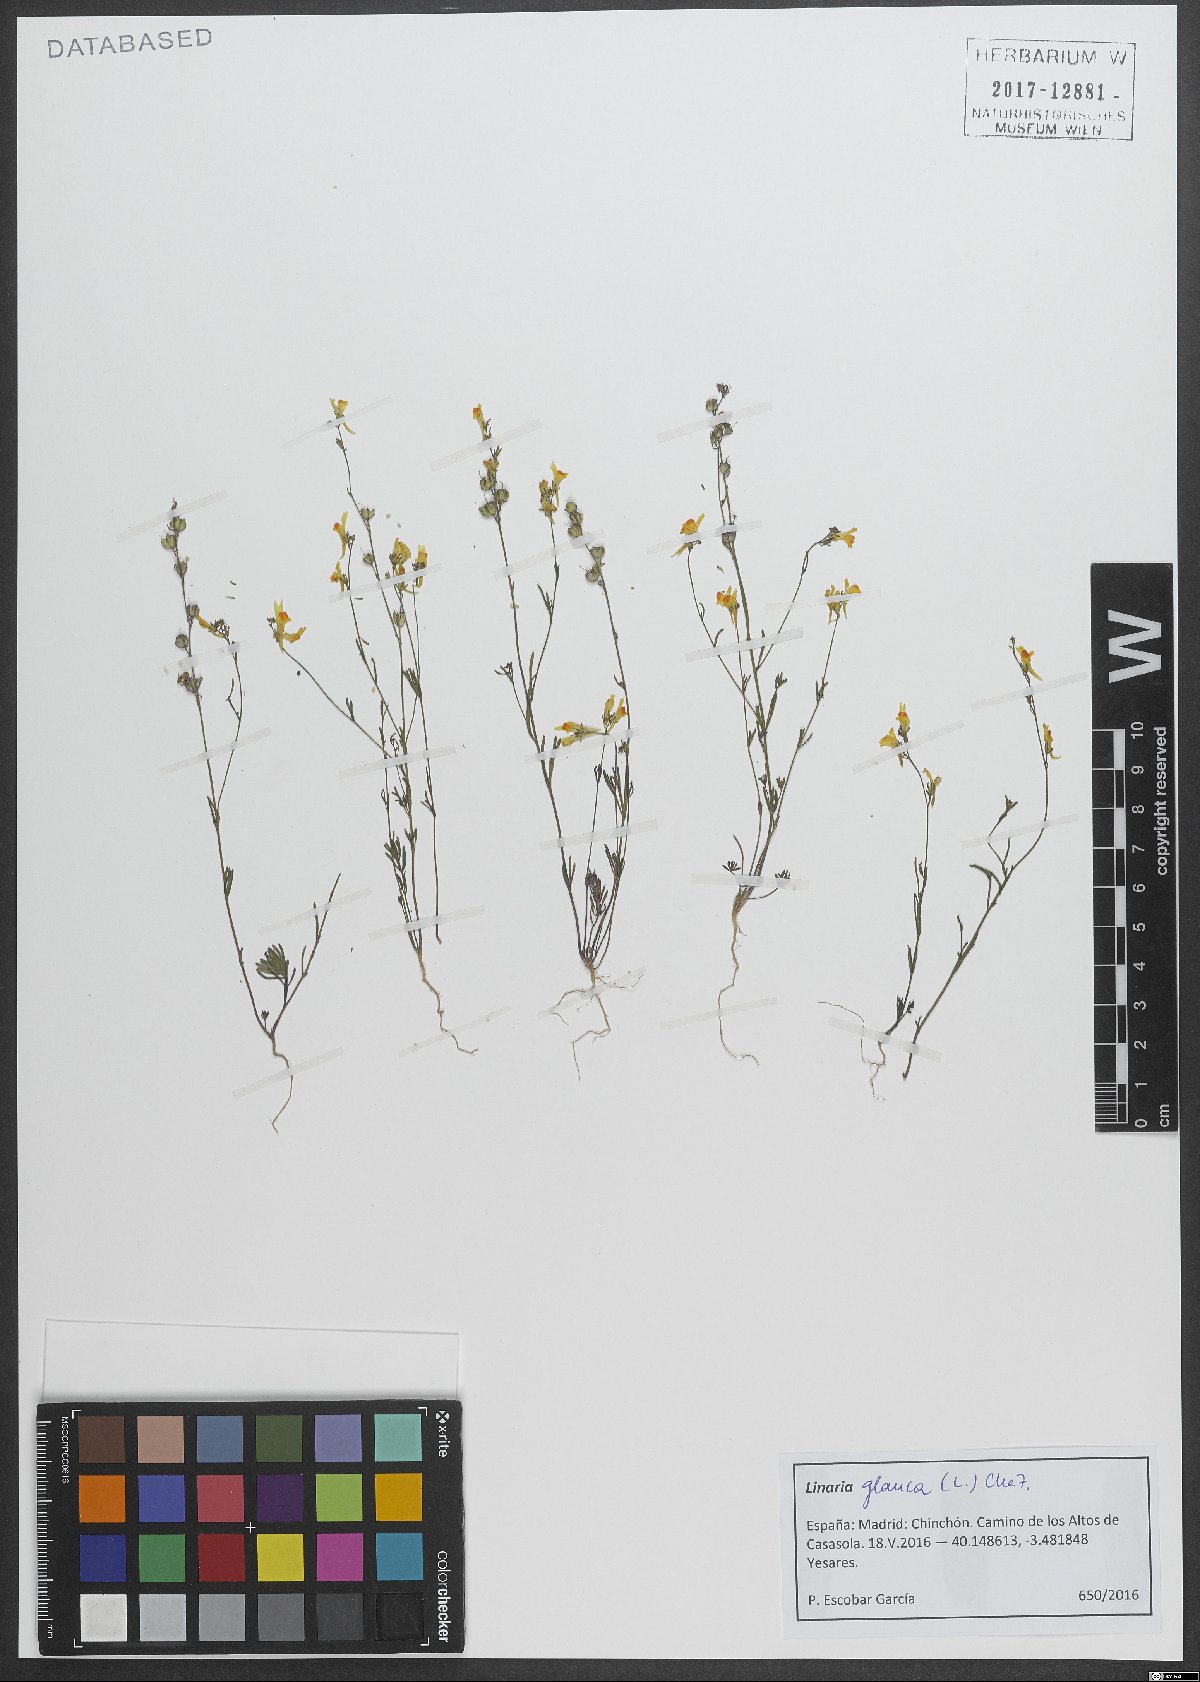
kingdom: Plantae
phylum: Tracheophyta
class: Magnoliopsida
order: Lamiales
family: Plantaginaceae
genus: Linaria
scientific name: Linaria vulgaris
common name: Butter and eggs
